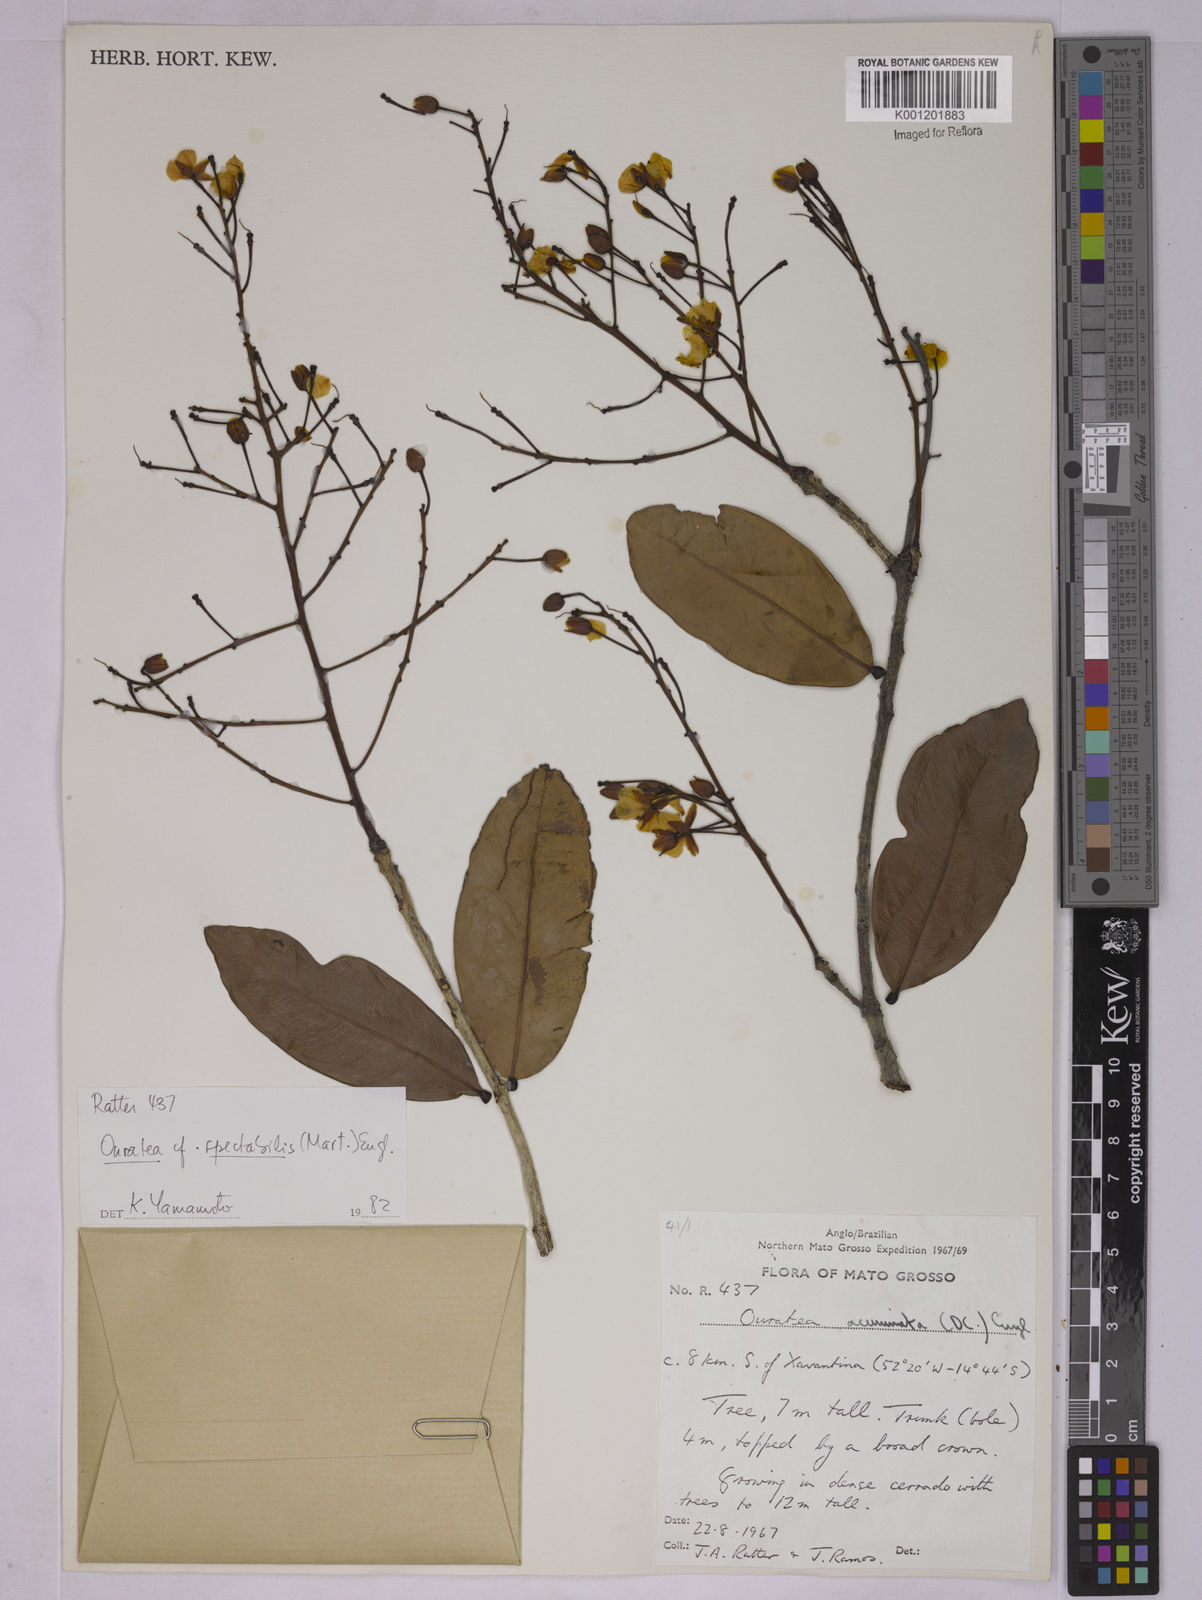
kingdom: Plantae
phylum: Tracheophyta
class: Magnoliopsida
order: Malpighiales
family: Ochnaceae
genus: Ouratea
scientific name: Ouratea spectabilis
